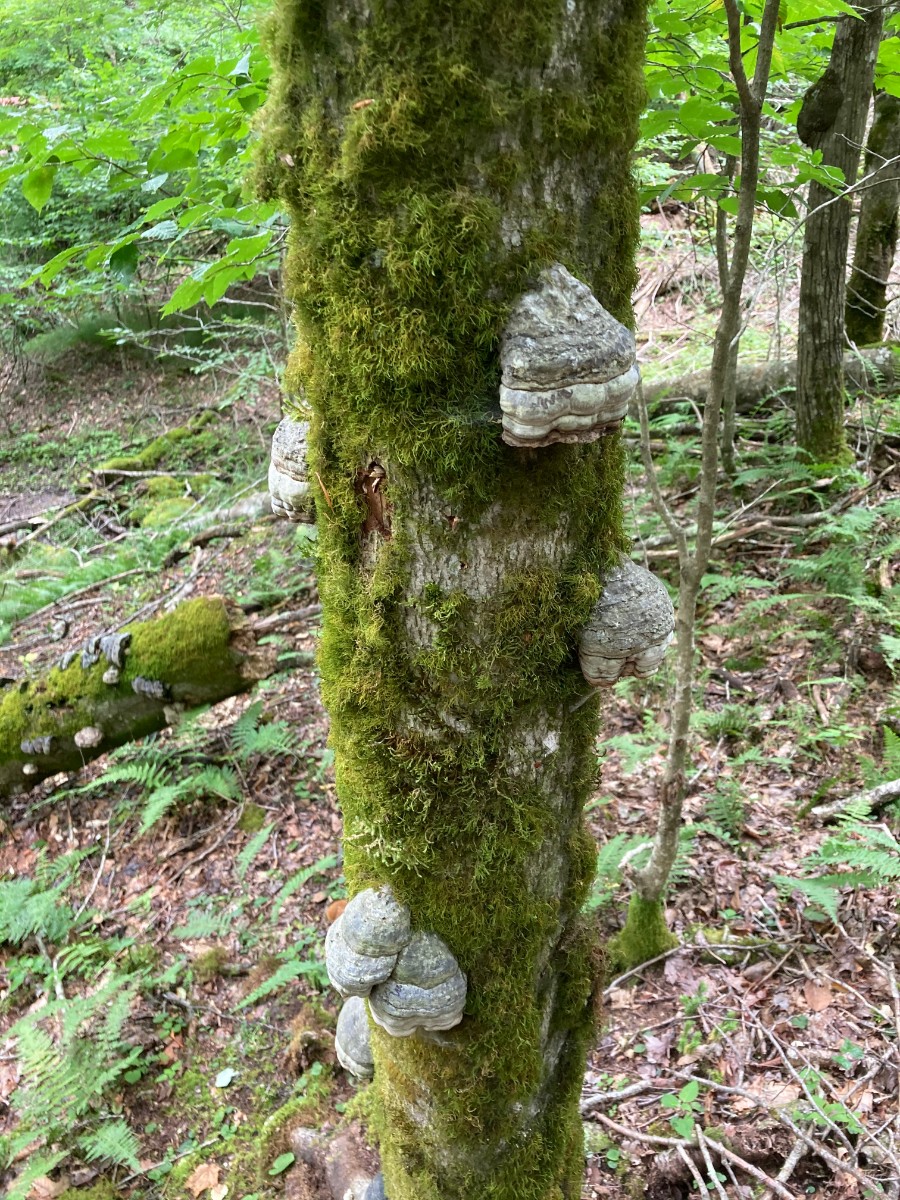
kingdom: Fungi
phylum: Basidiomycota
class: Agaricomycetes
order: Polyporales
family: Polyporaceae
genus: Fomes
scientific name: Fomes fomentarius
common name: tøndersvamp
